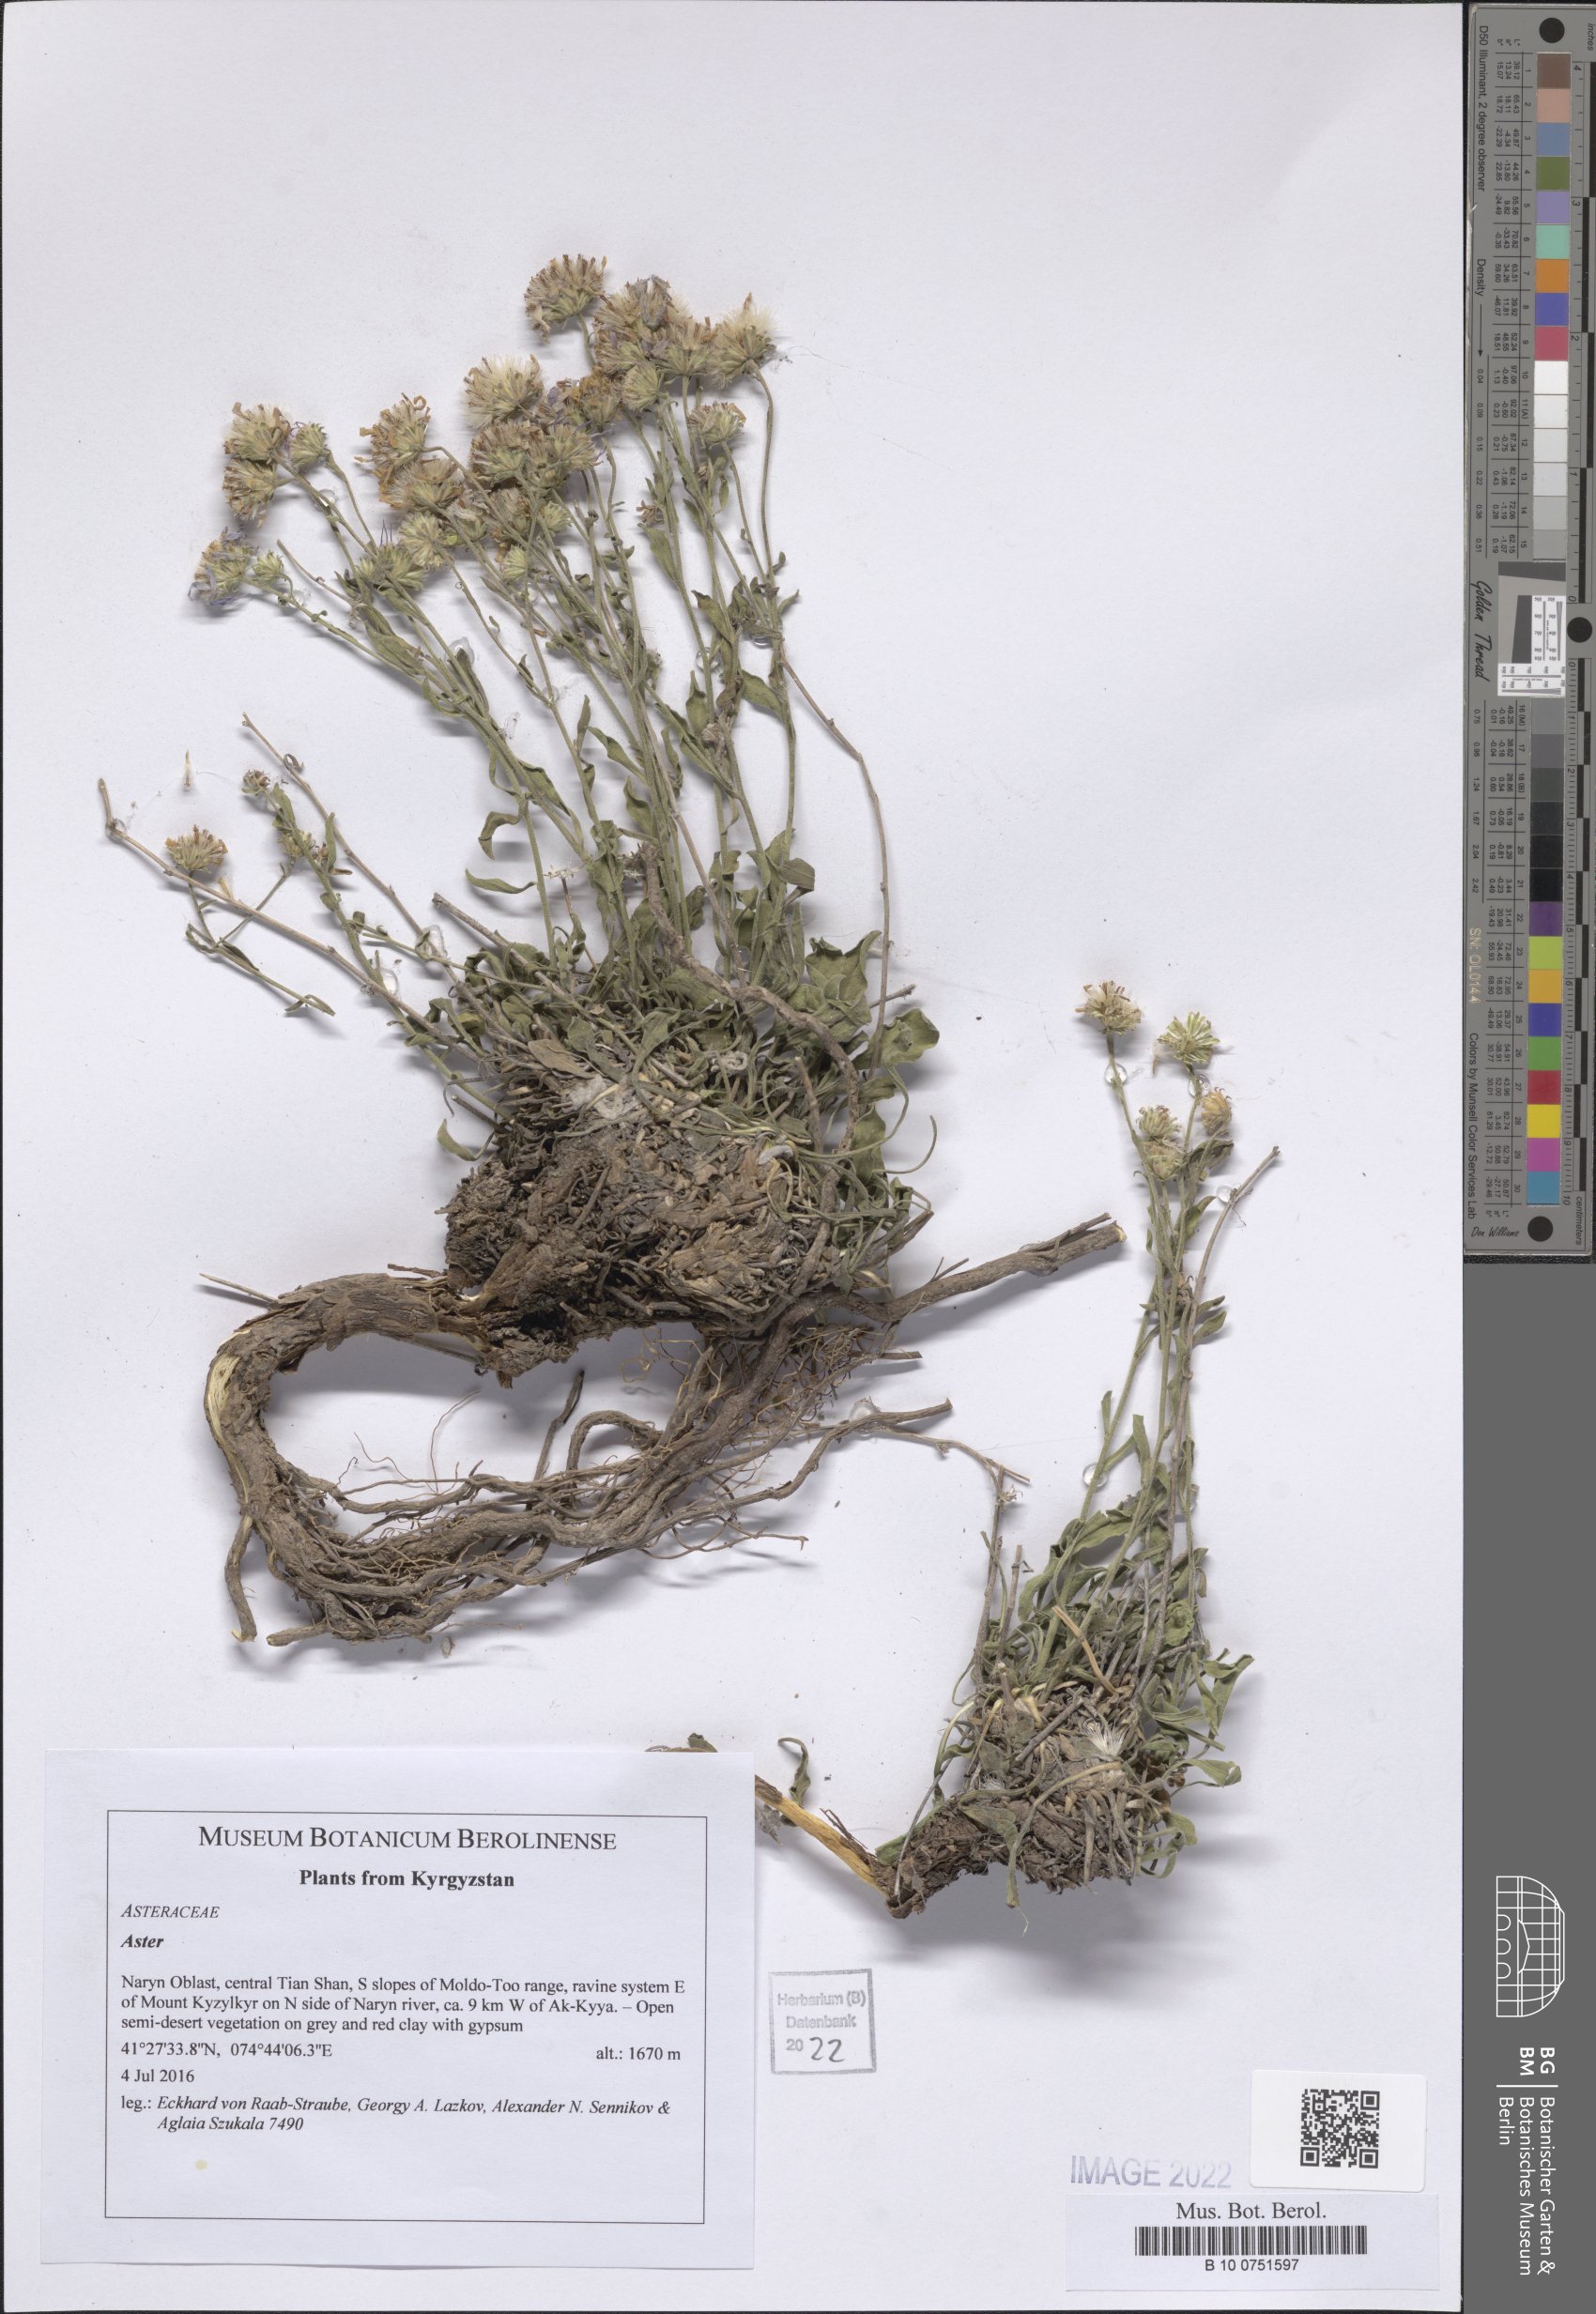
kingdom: Plantae
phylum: Tracheophyta
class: Magnoliopsida
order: Asterales
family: Asteraceae
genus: Aster
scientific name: Aster
